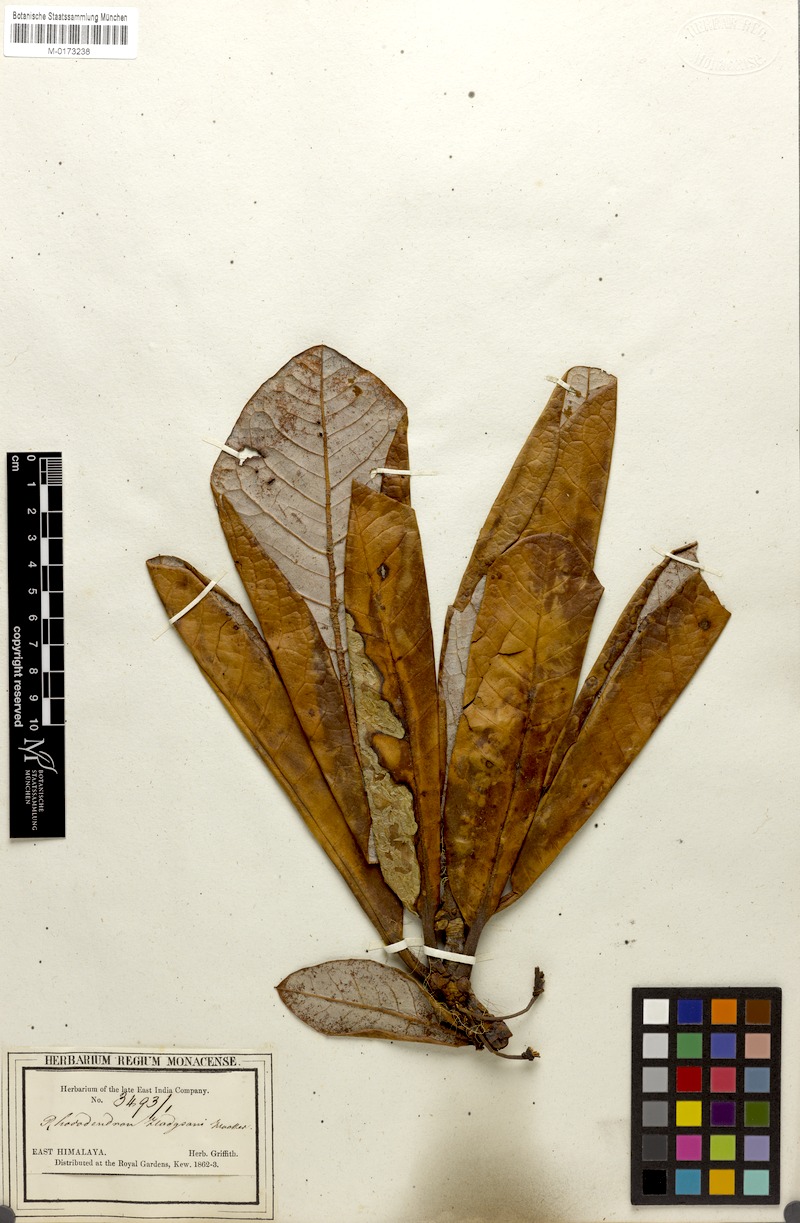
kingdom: Plantae
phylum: Tracheophyta
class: Magnoliopsida
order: Ericales
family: Ericaceae
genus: Rhododendron
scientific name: Rhododendron hodgsonii
